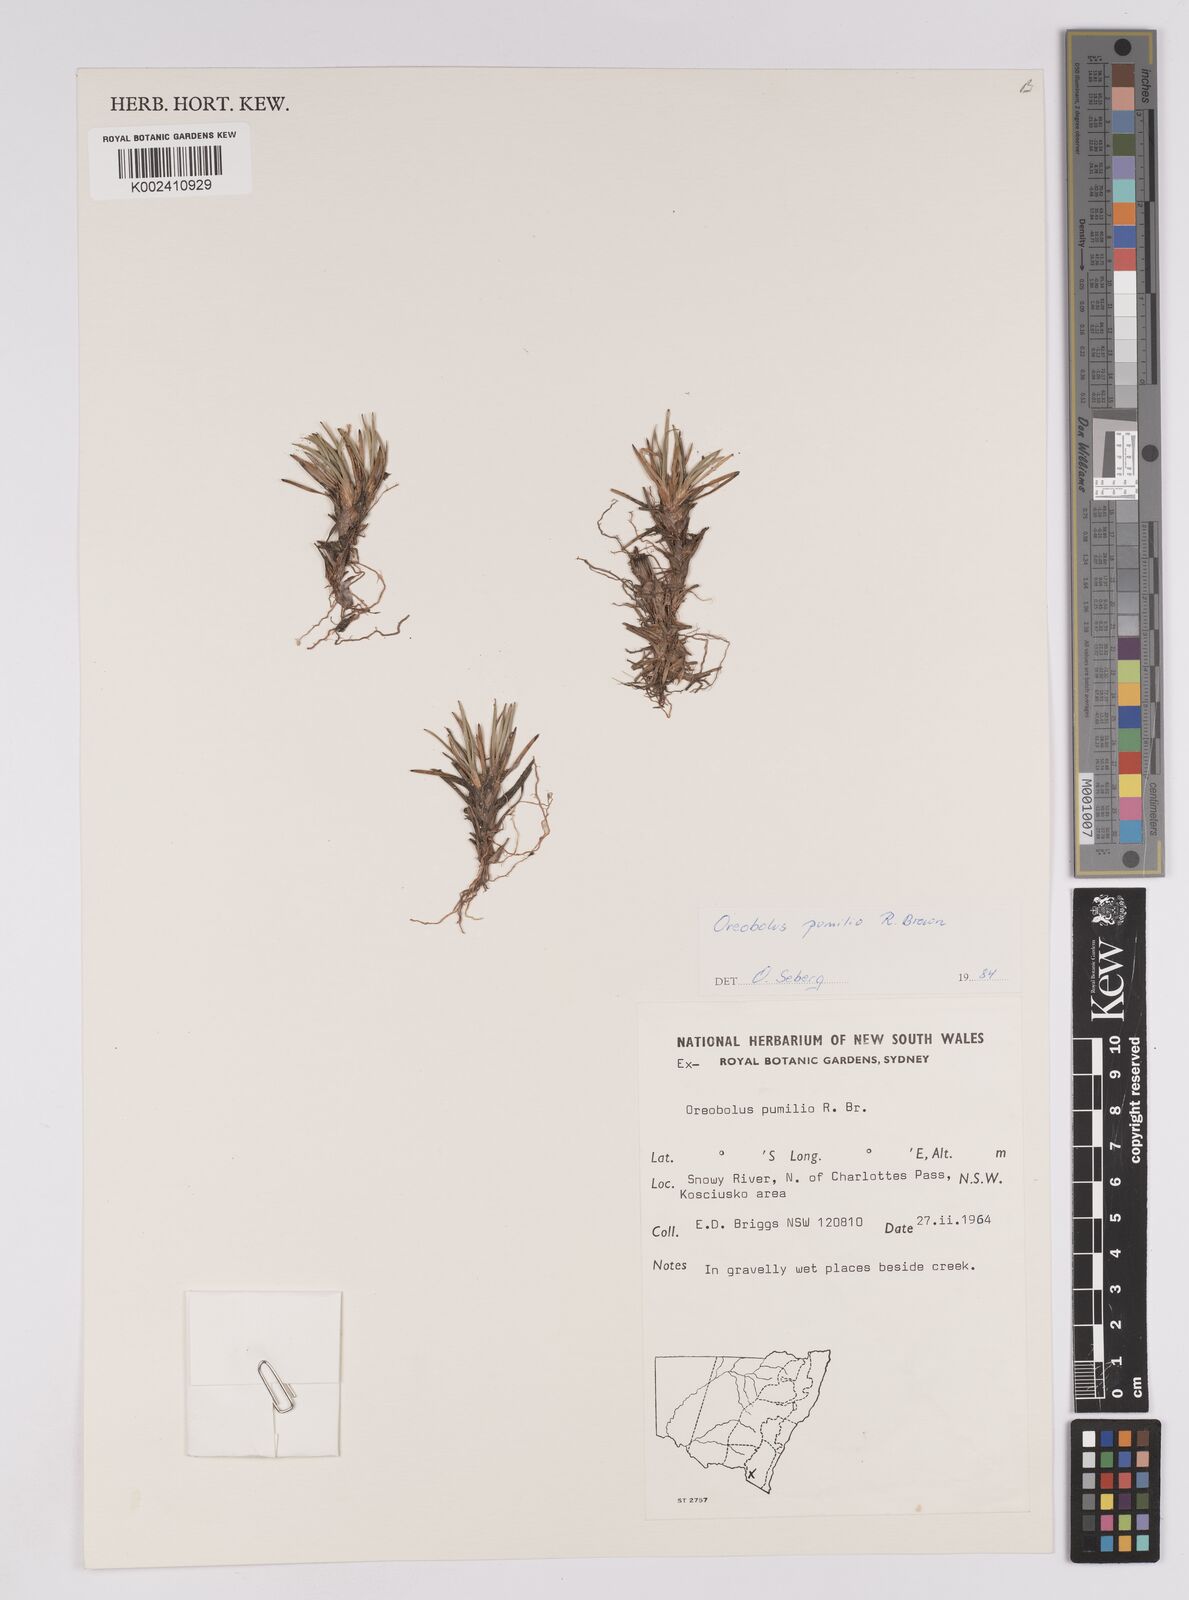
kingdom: Plantae
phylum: Tracheophyta
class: Liliopsida
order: Poales
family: Cyperaceae
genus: Oreobolus
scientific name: Oreobolus pumilio
